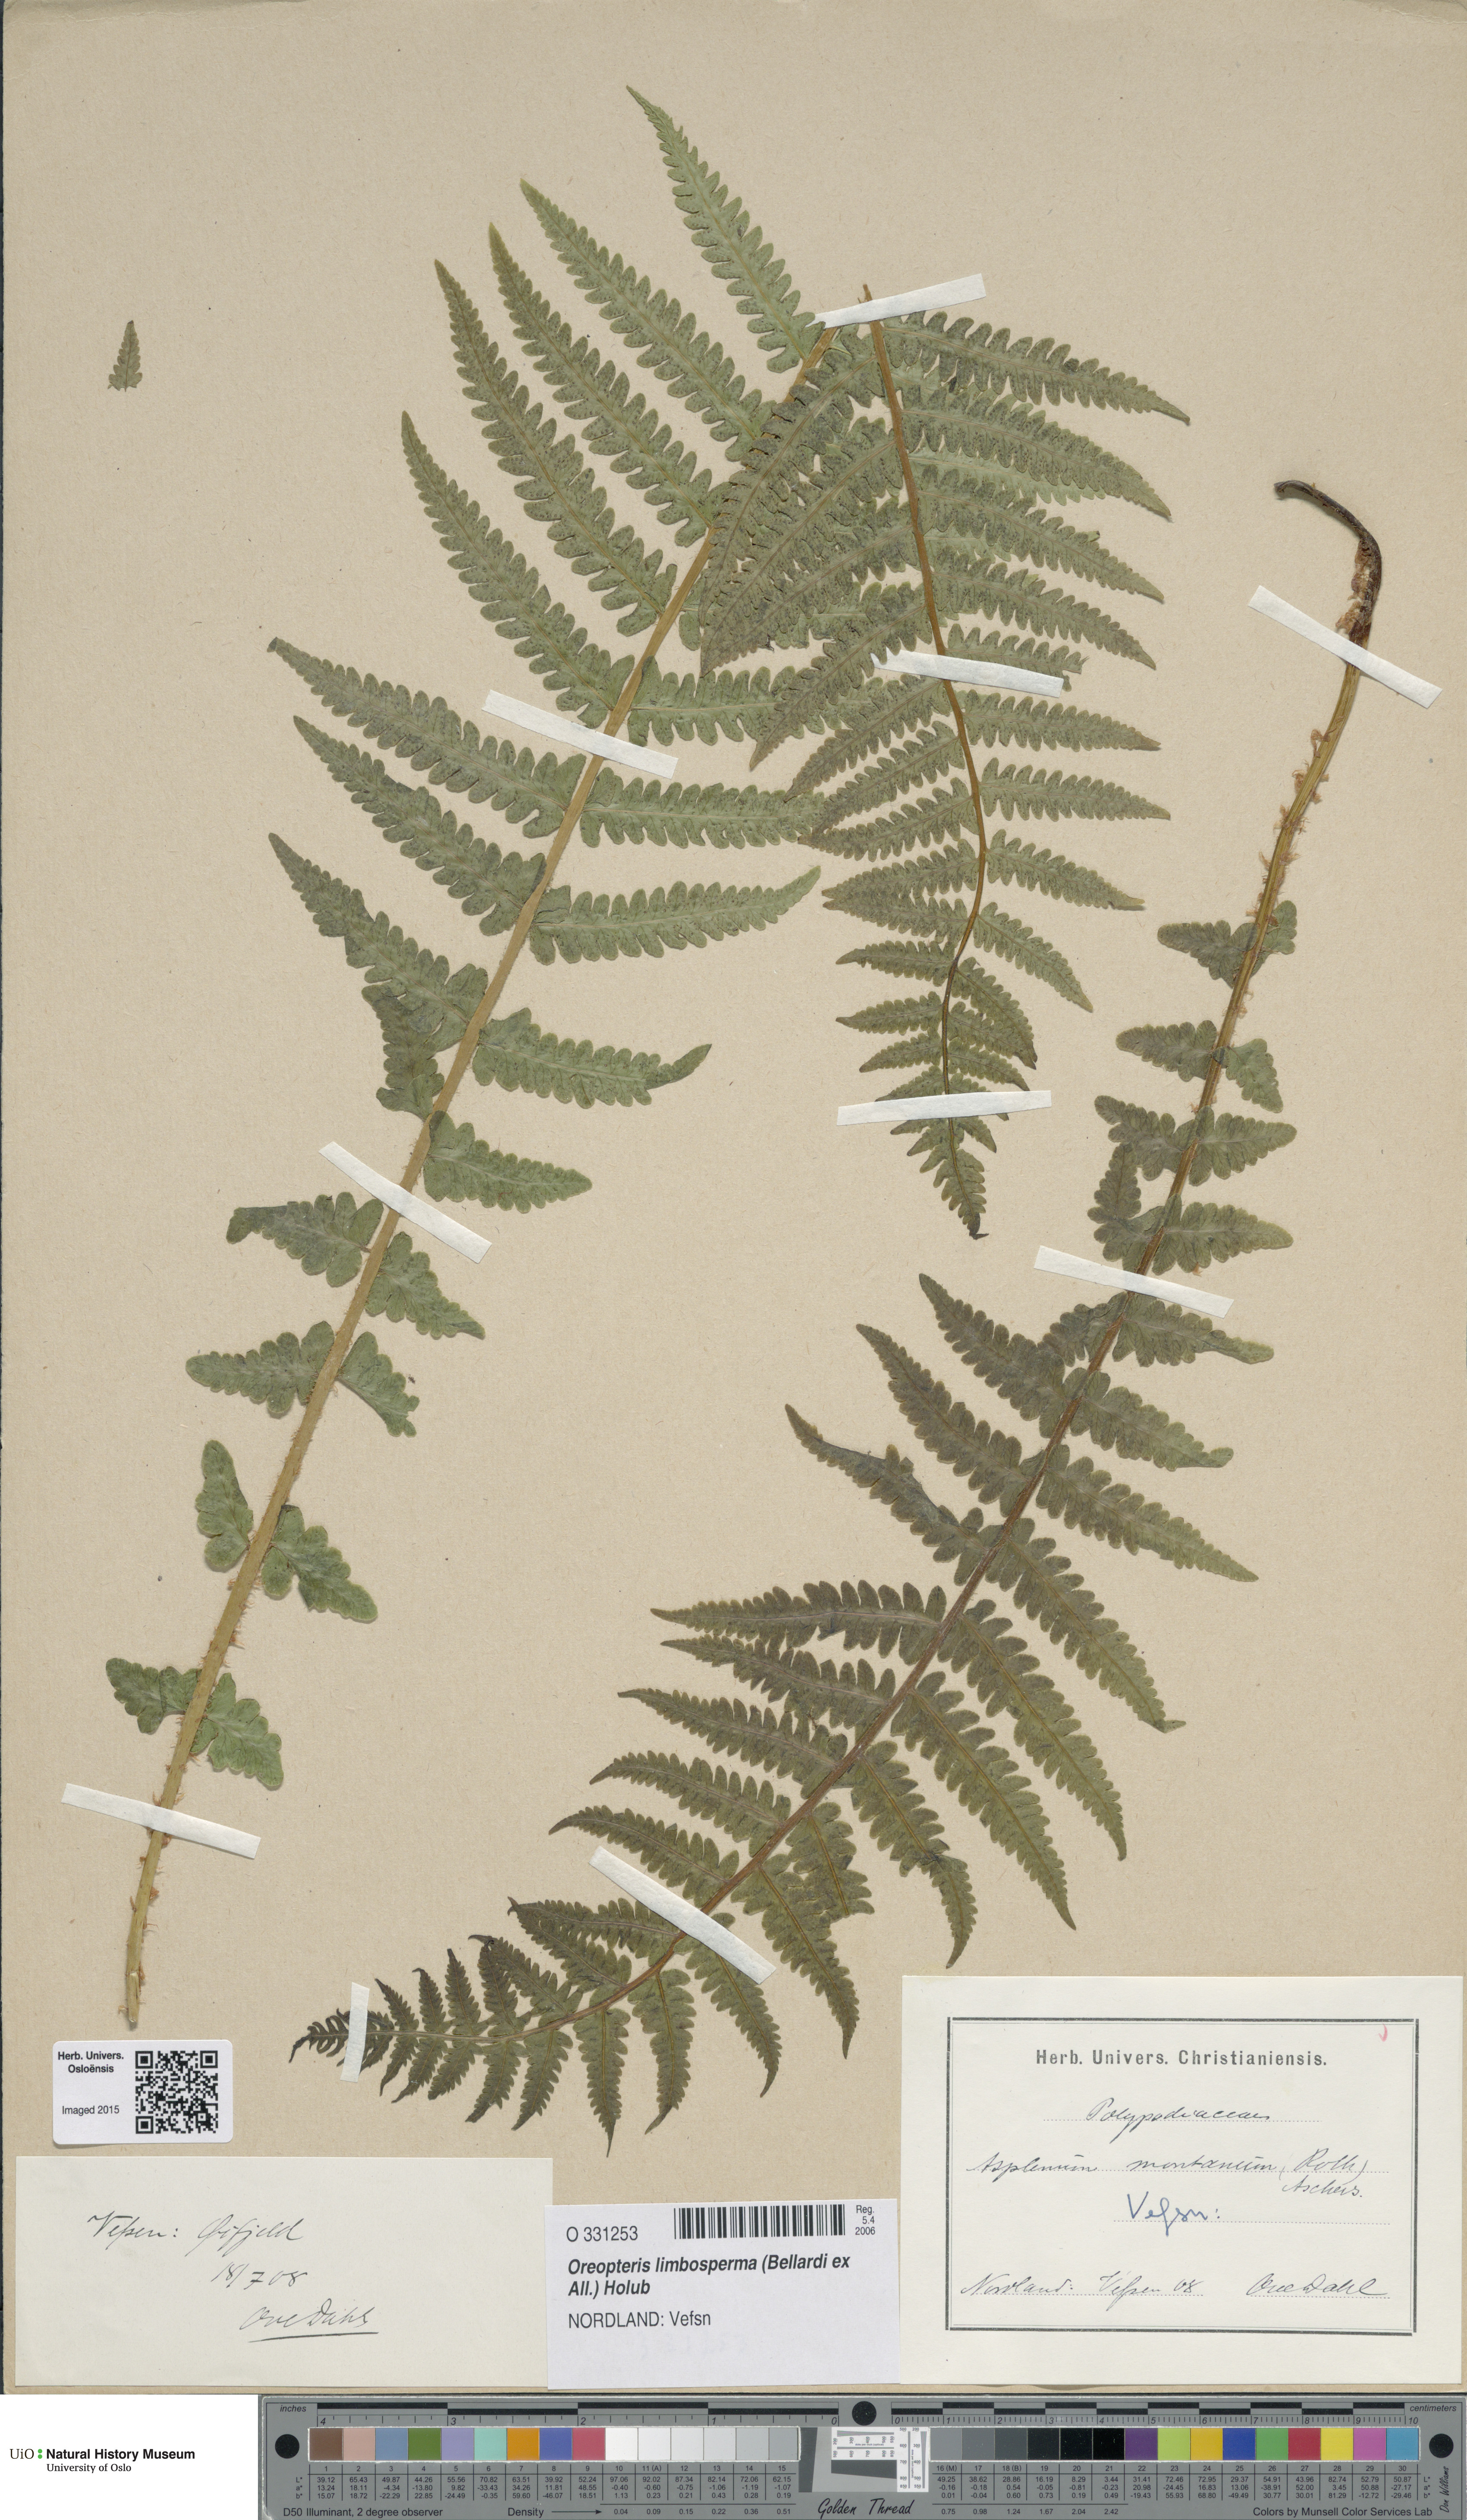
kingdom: Plantae
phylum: Tracheophyta
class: Polypodiopsida
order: Polypodiales
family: Thelypteridaceae
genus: Oreopteris
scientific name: Oreopteris limbosperma
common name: Lemon-scented fern
